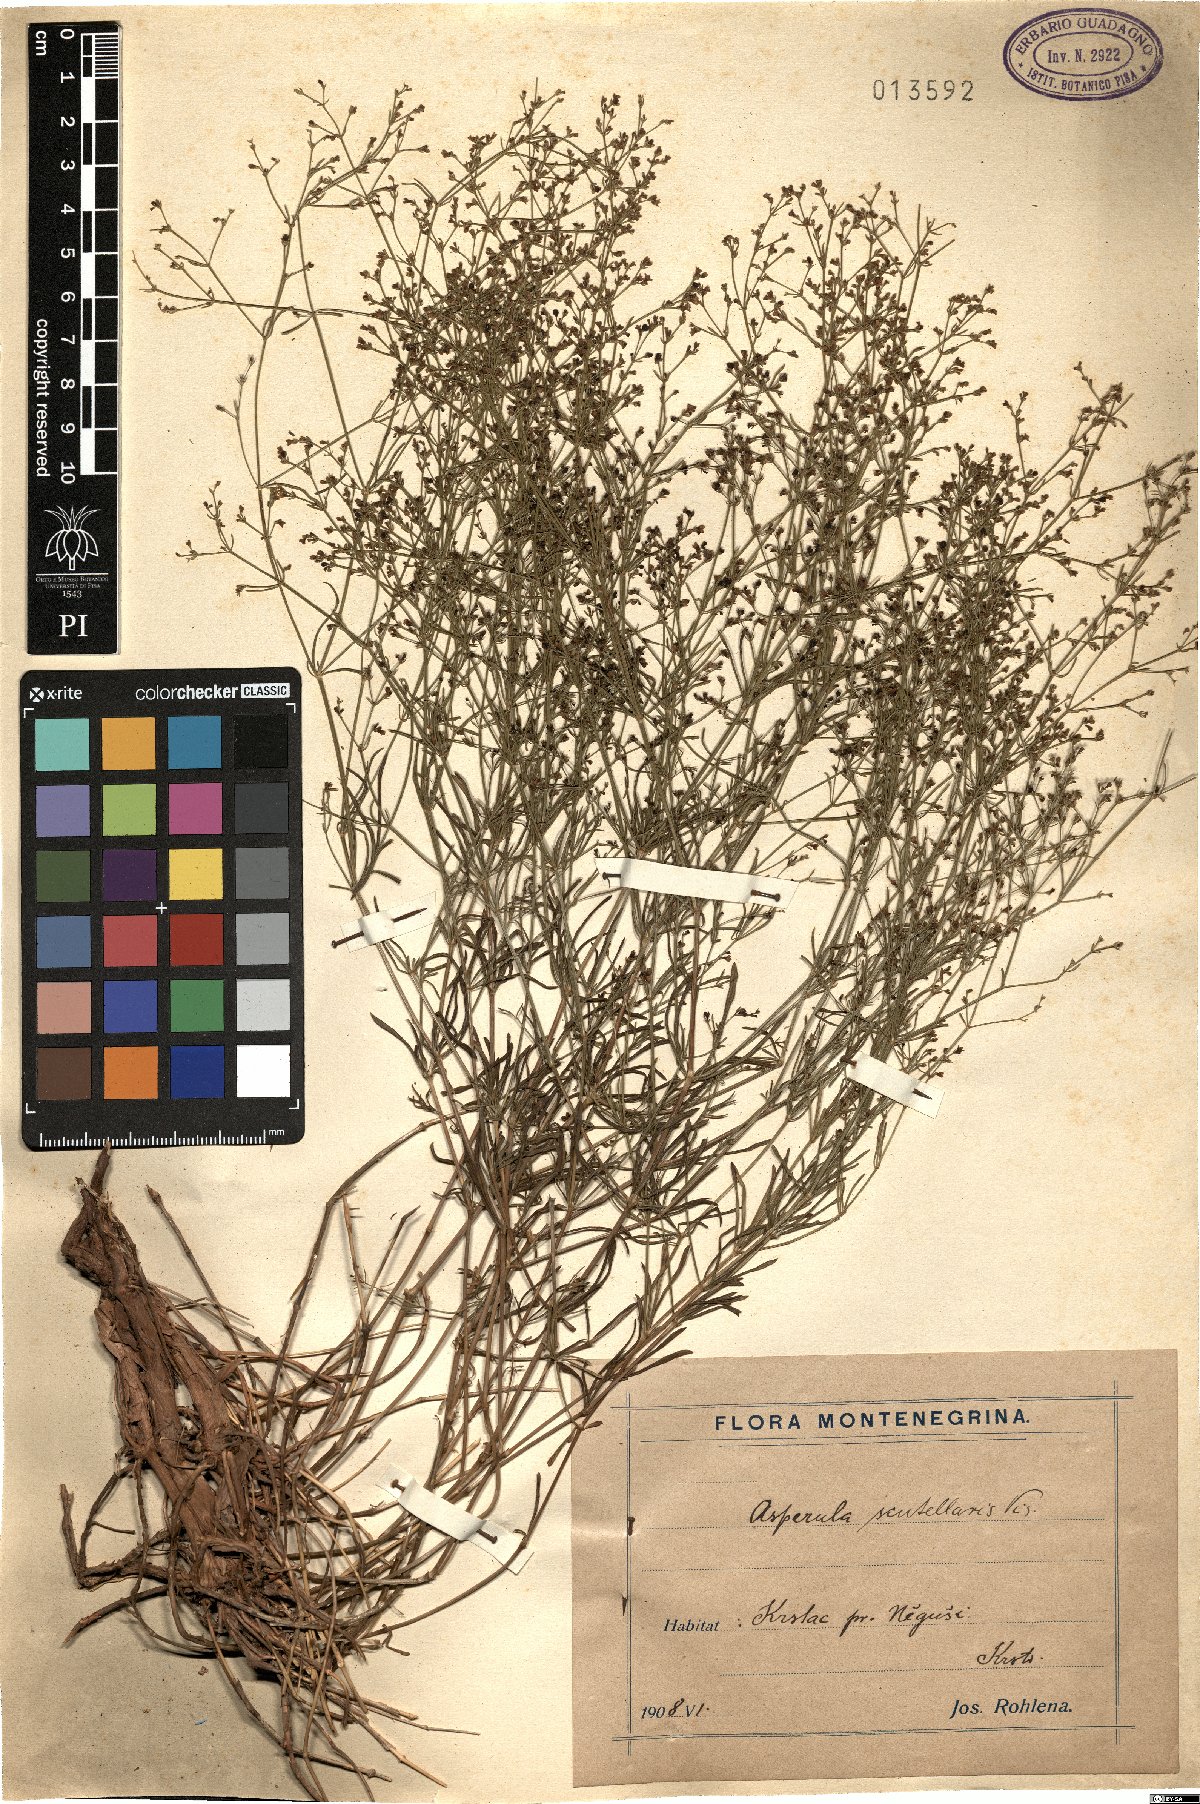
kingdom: Plantae
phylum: Tracheophyta
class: Magnoliopsida
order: Gentianales
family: Rubiaceae
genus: Thliphthisa
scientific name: Thliphthisa rupestris
